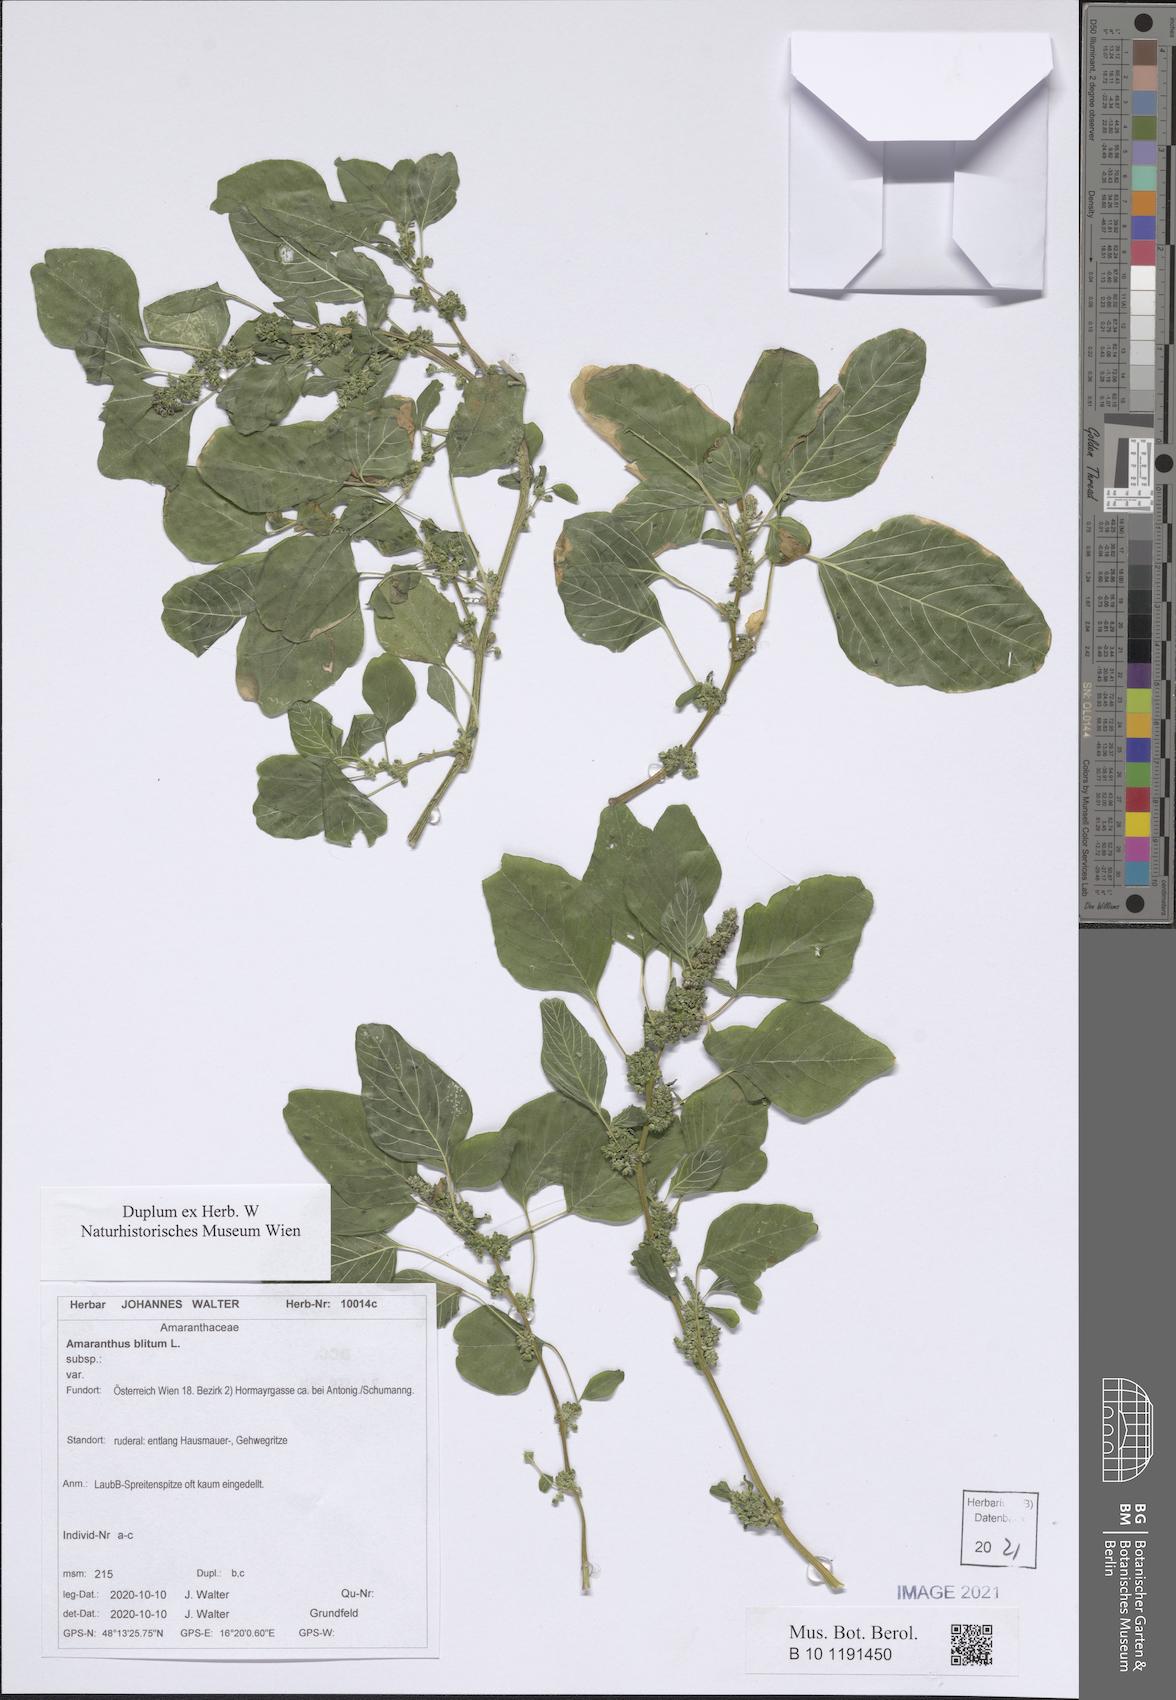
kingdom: Plantae
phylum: Tracheophyta
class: Magnoliopsida
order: Caryophyllales
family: Amaranthaceae
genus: Amaranthus
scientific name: Amaranthus blitum
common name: Purple amaranth
